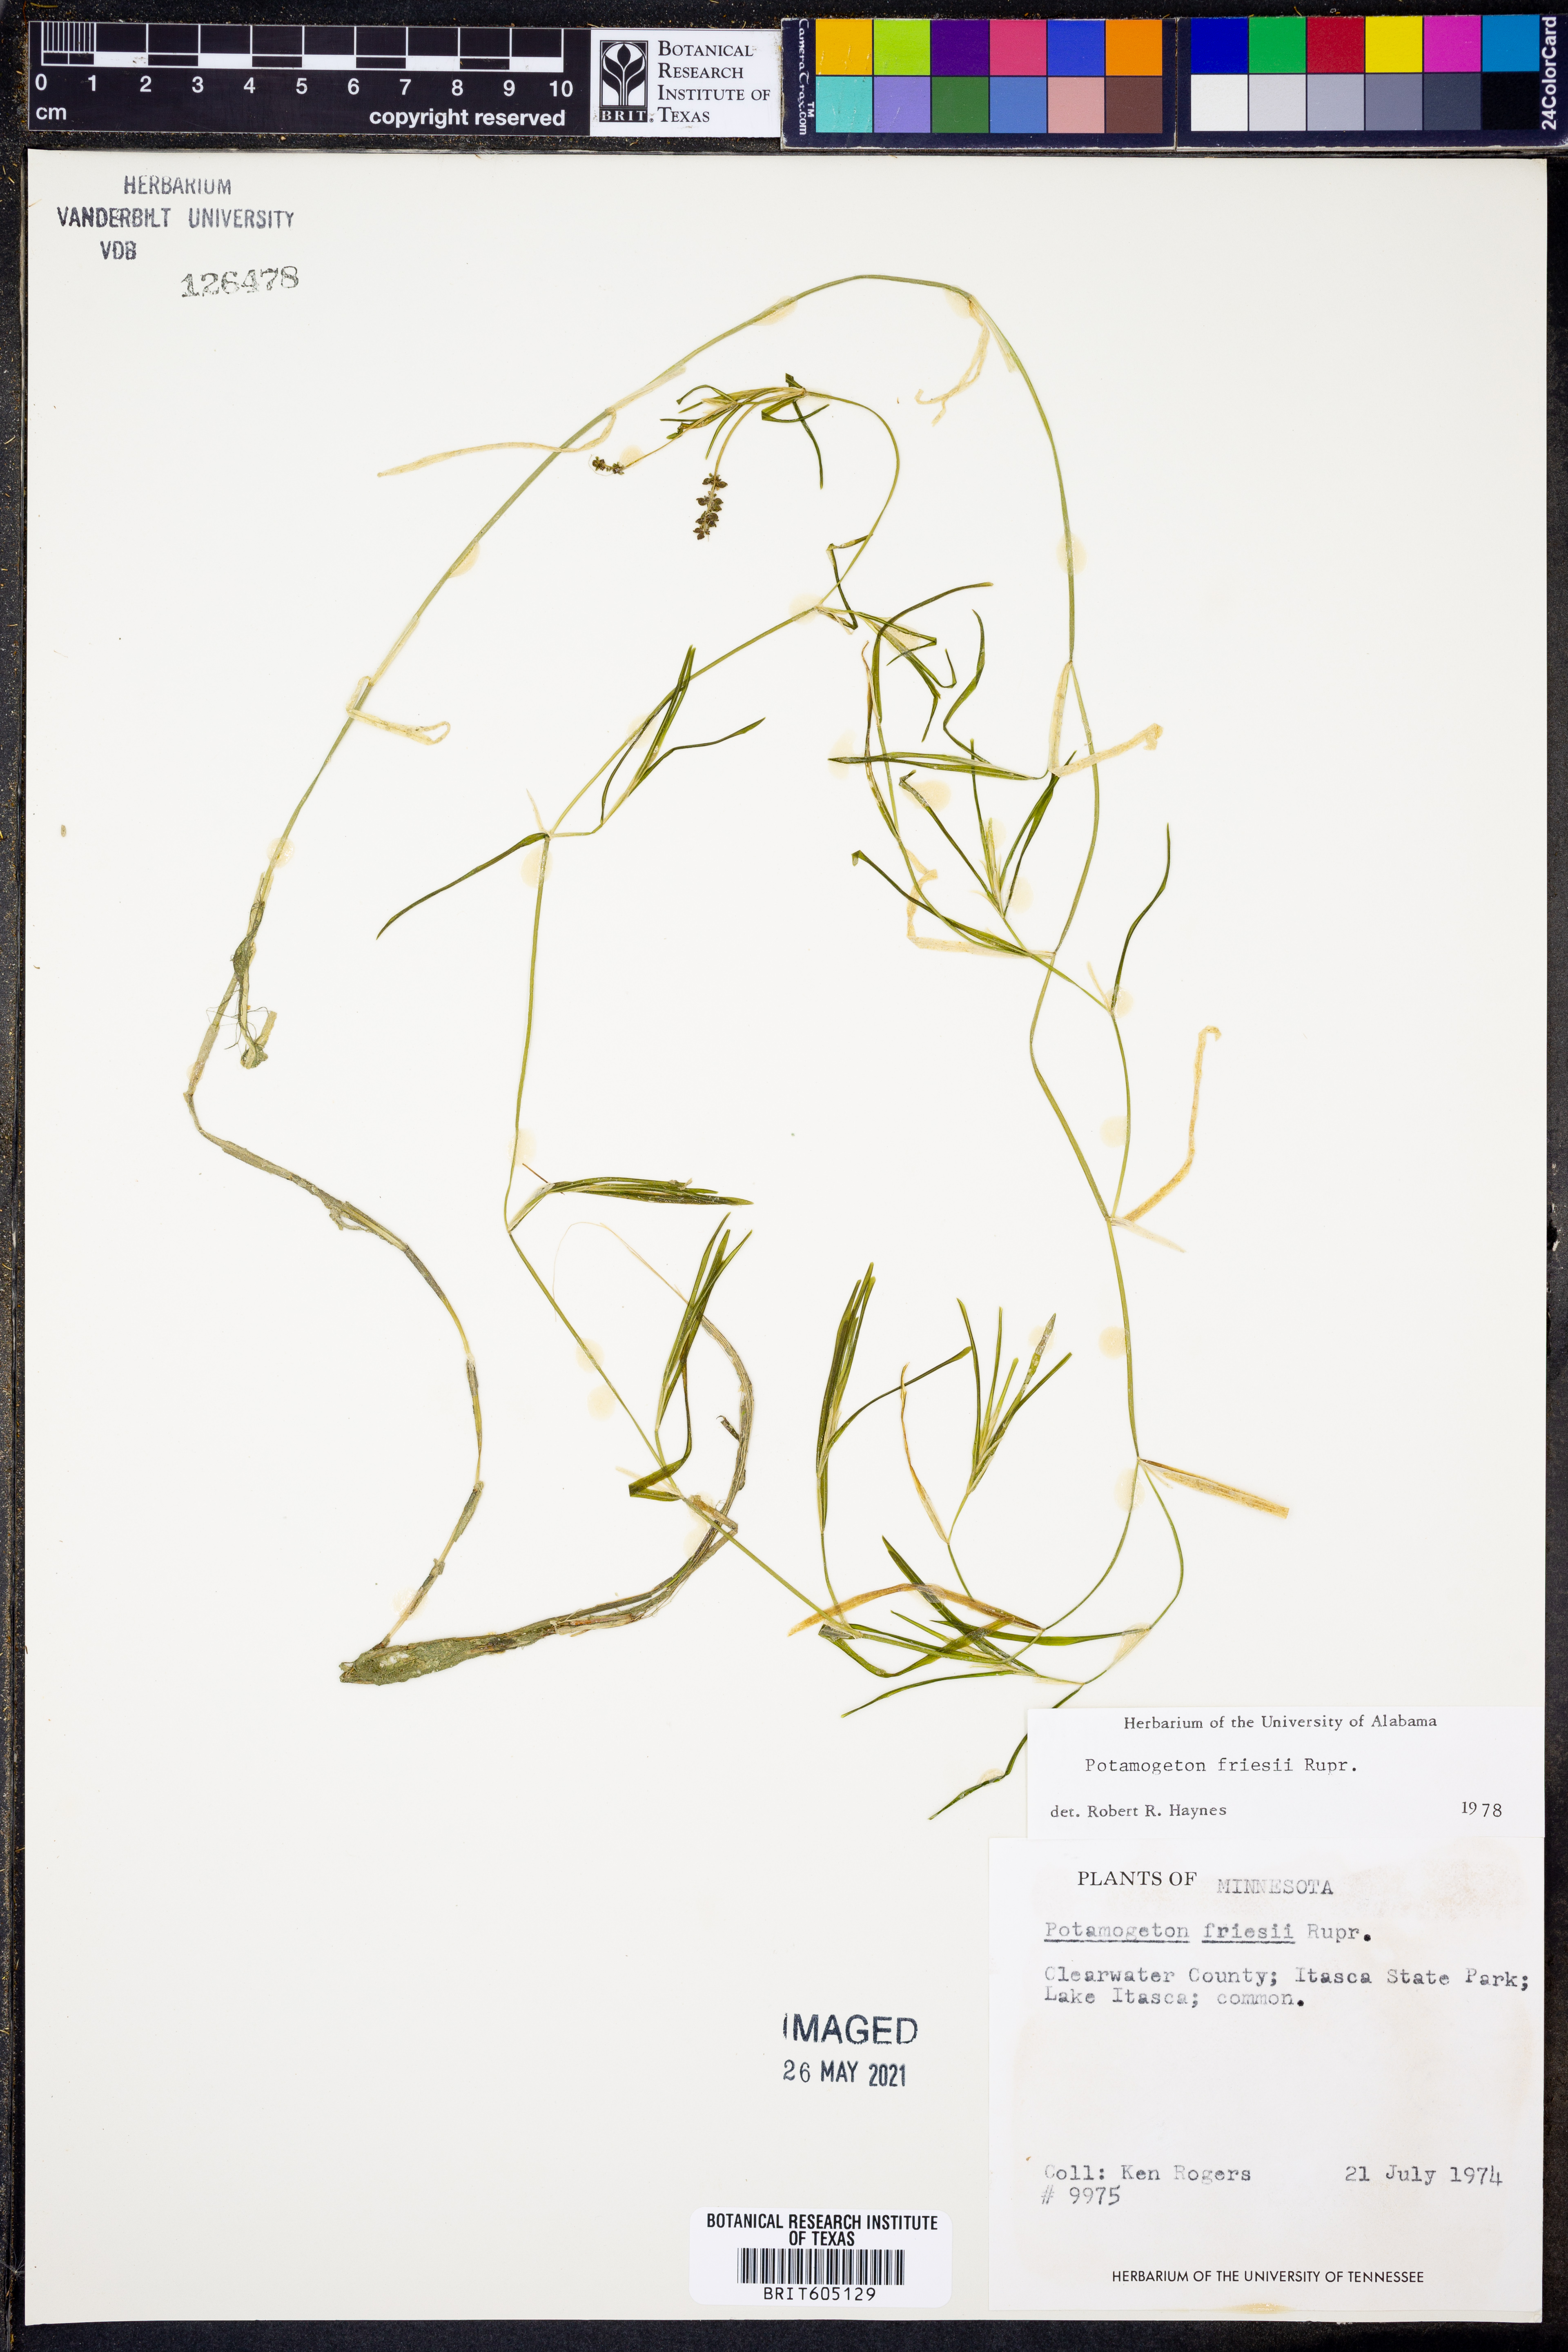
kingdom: Plantae
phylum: Tracheophyta
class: Liliopsida
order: Alismatales
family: Potamogetonaceae
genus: Potamogeton
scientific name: Potamogeton friesii
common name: Flat-stalked pondweed
